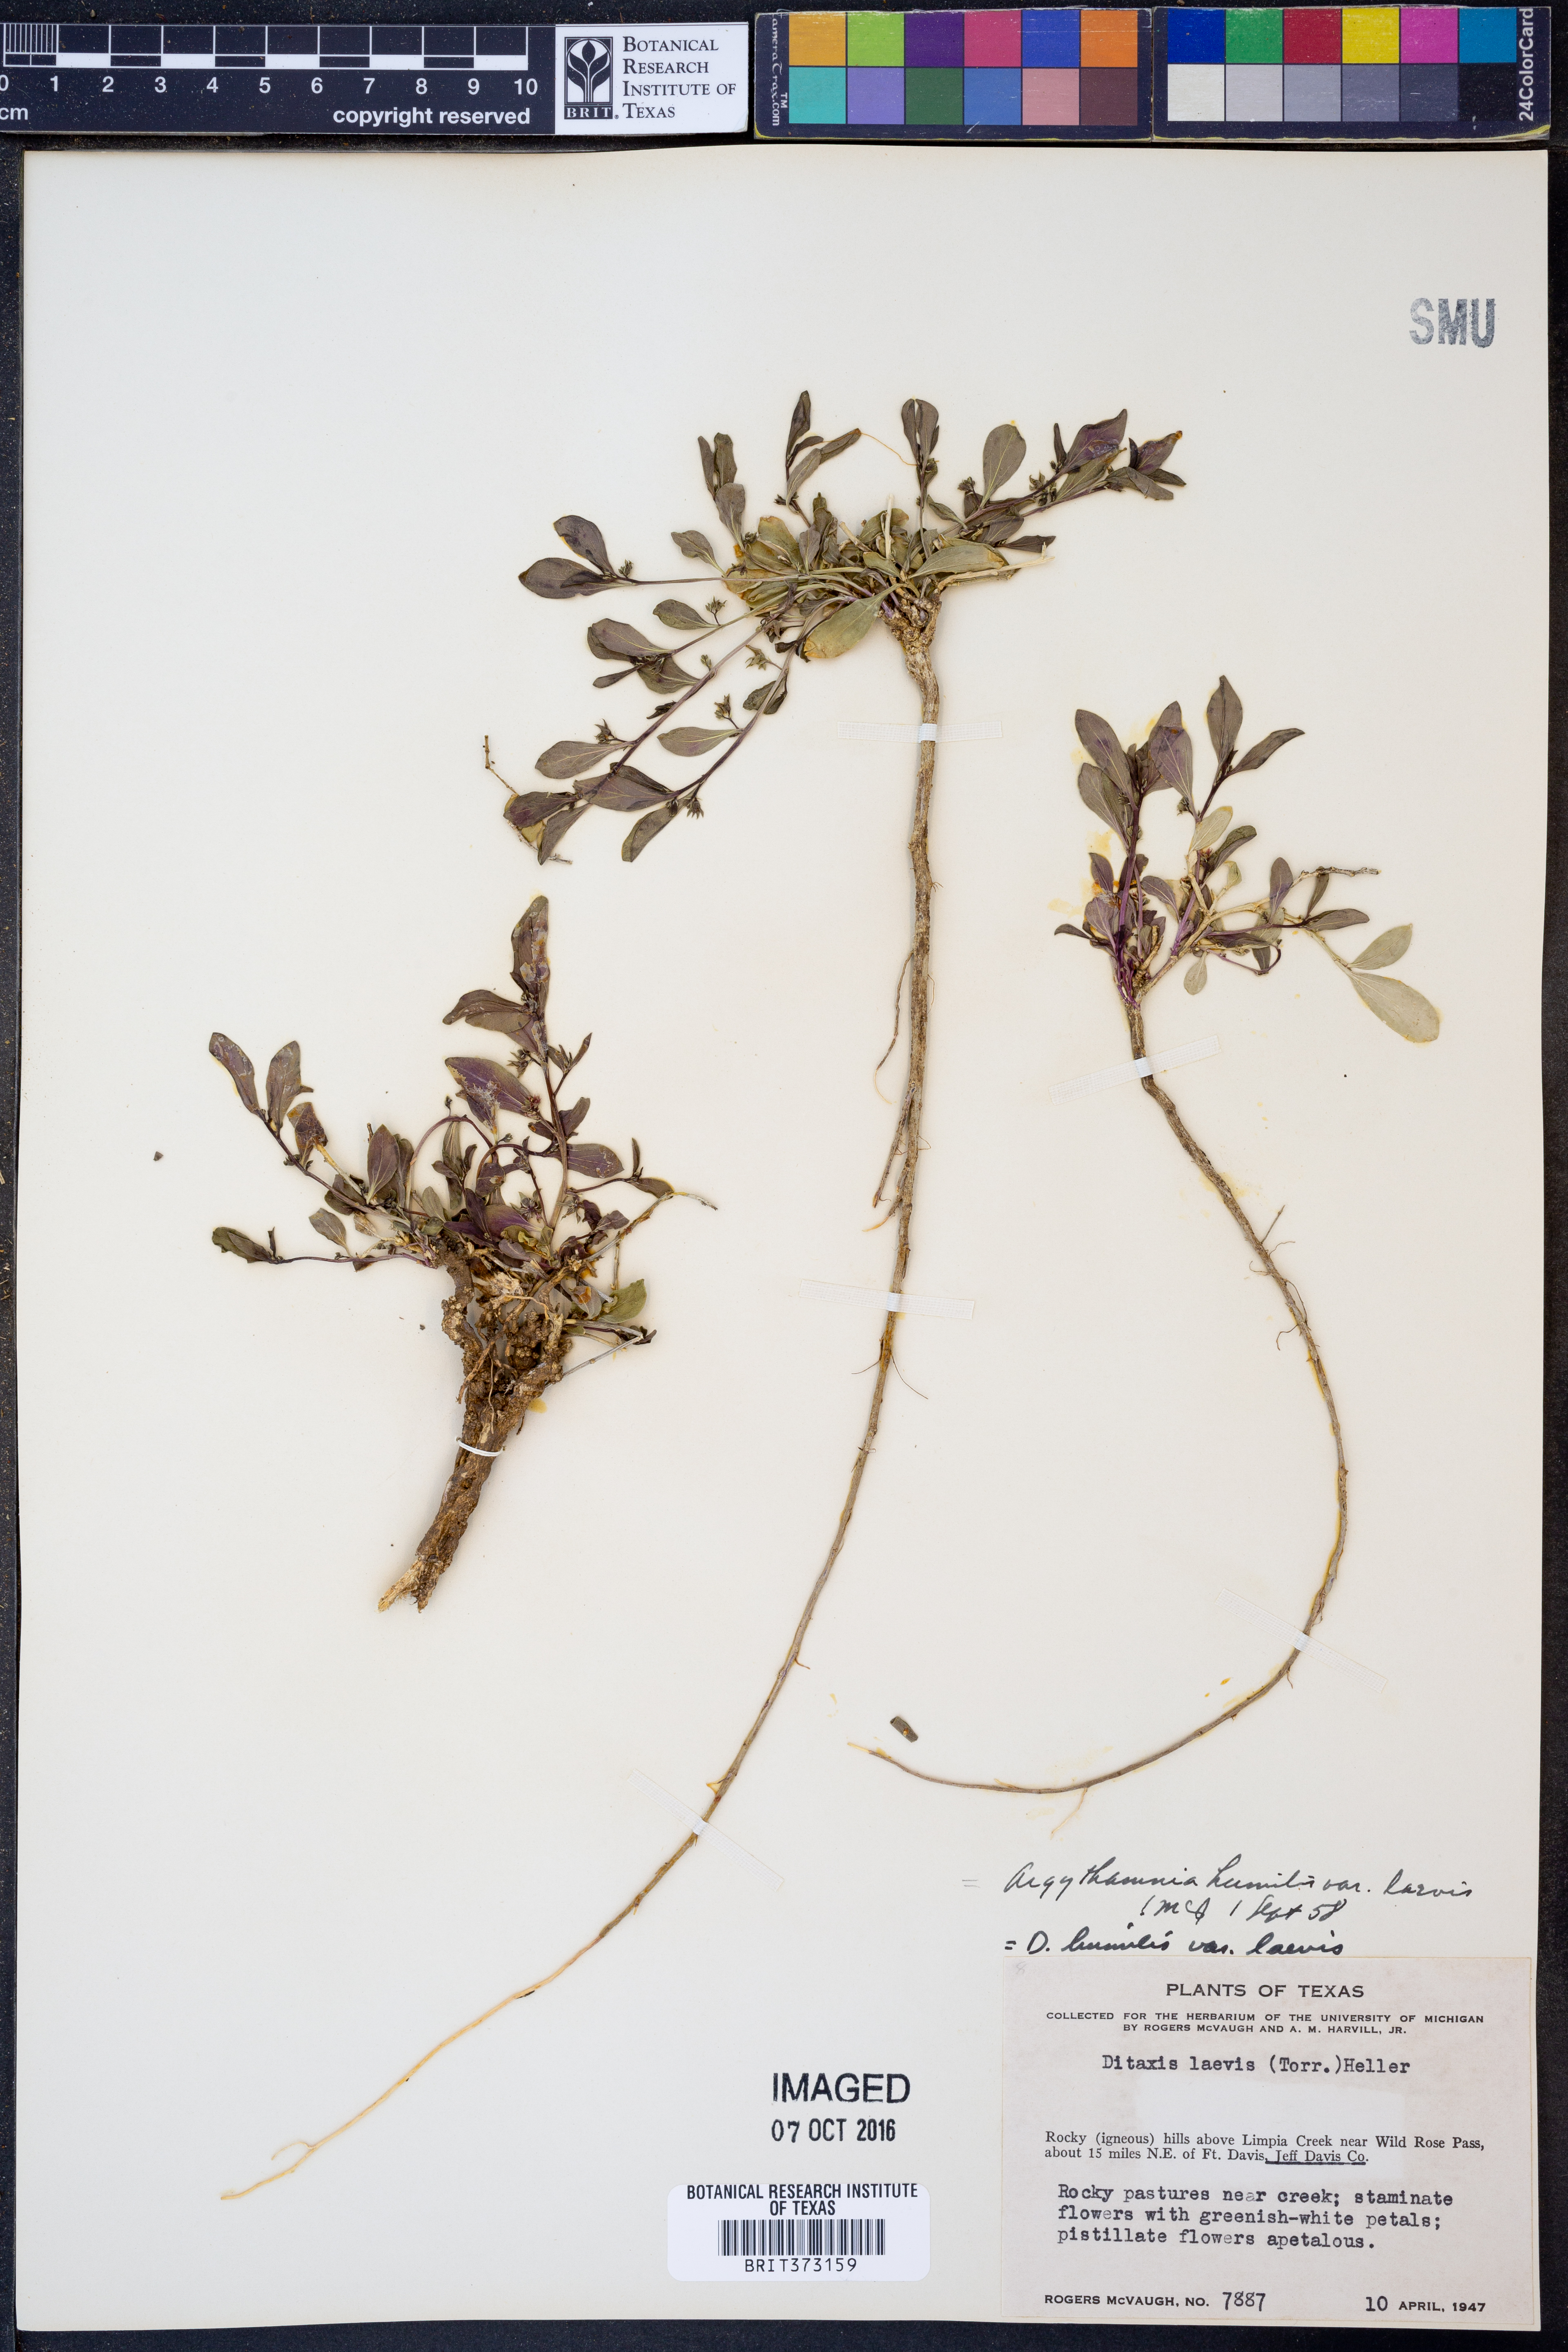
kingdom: Plantae
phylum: Tracheophyta
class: Magnoliopsida
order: Malpighiales
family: Euphorbiaceae
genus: Ditaxis
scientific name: Ditaxis humilis
